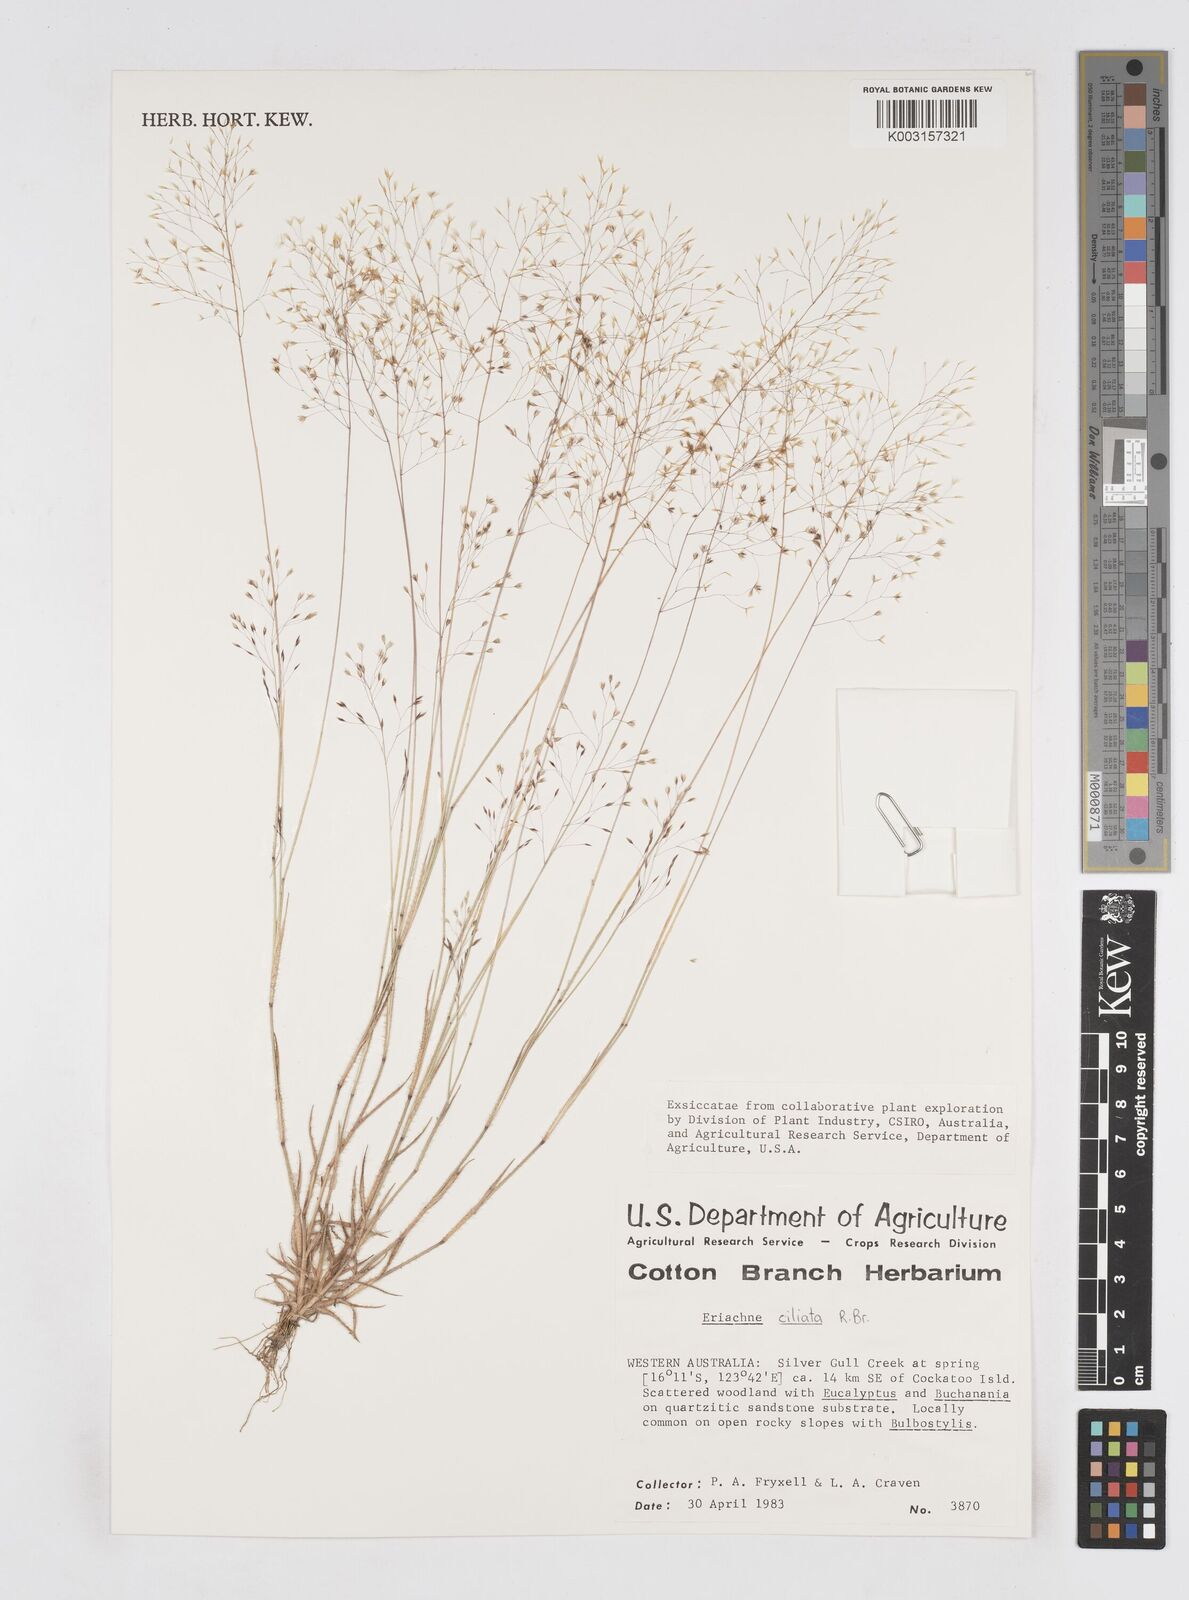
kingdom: Plantae
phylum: Tracheophyta
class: Liliopsida
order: Poales
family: Poaceae
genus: Eriachne
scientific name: Eriachne ciliata
